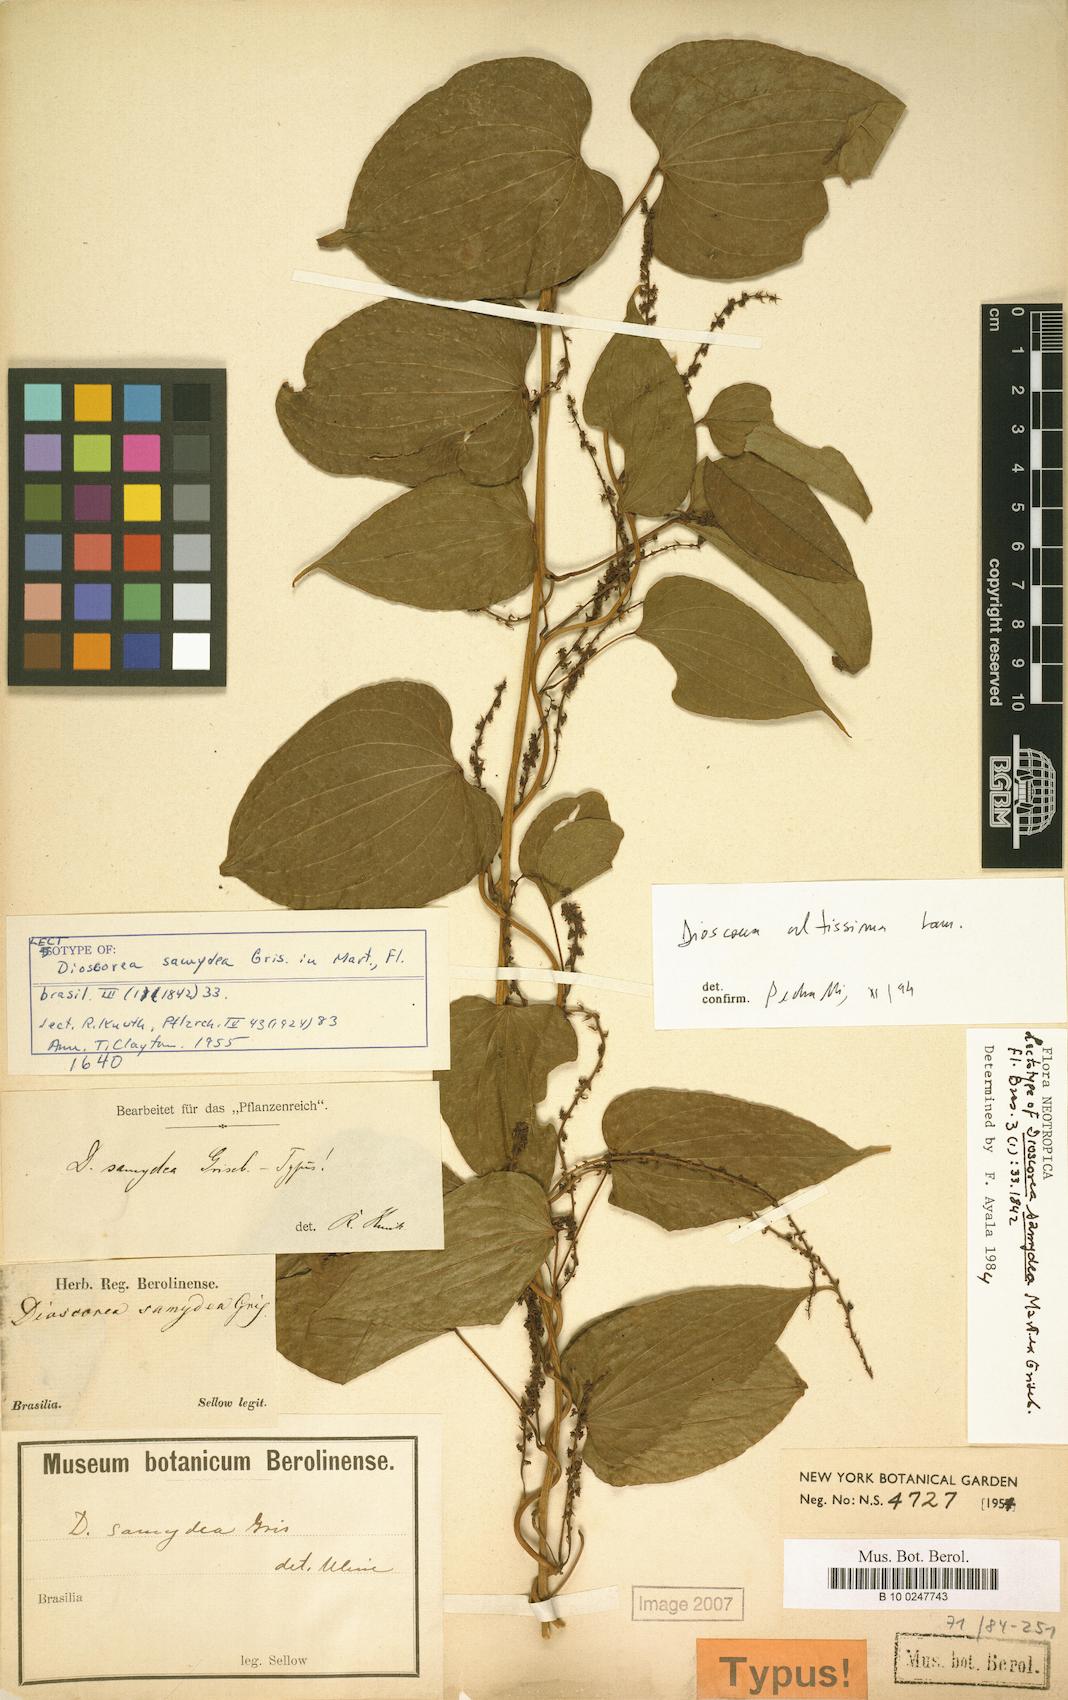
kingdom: Plantae
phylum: Tracheophyta
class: Liliopsida
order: Dioscoreales
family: Dioscoreaceae
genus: Dioscorea
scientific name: Dioscorea chondrocarpa
